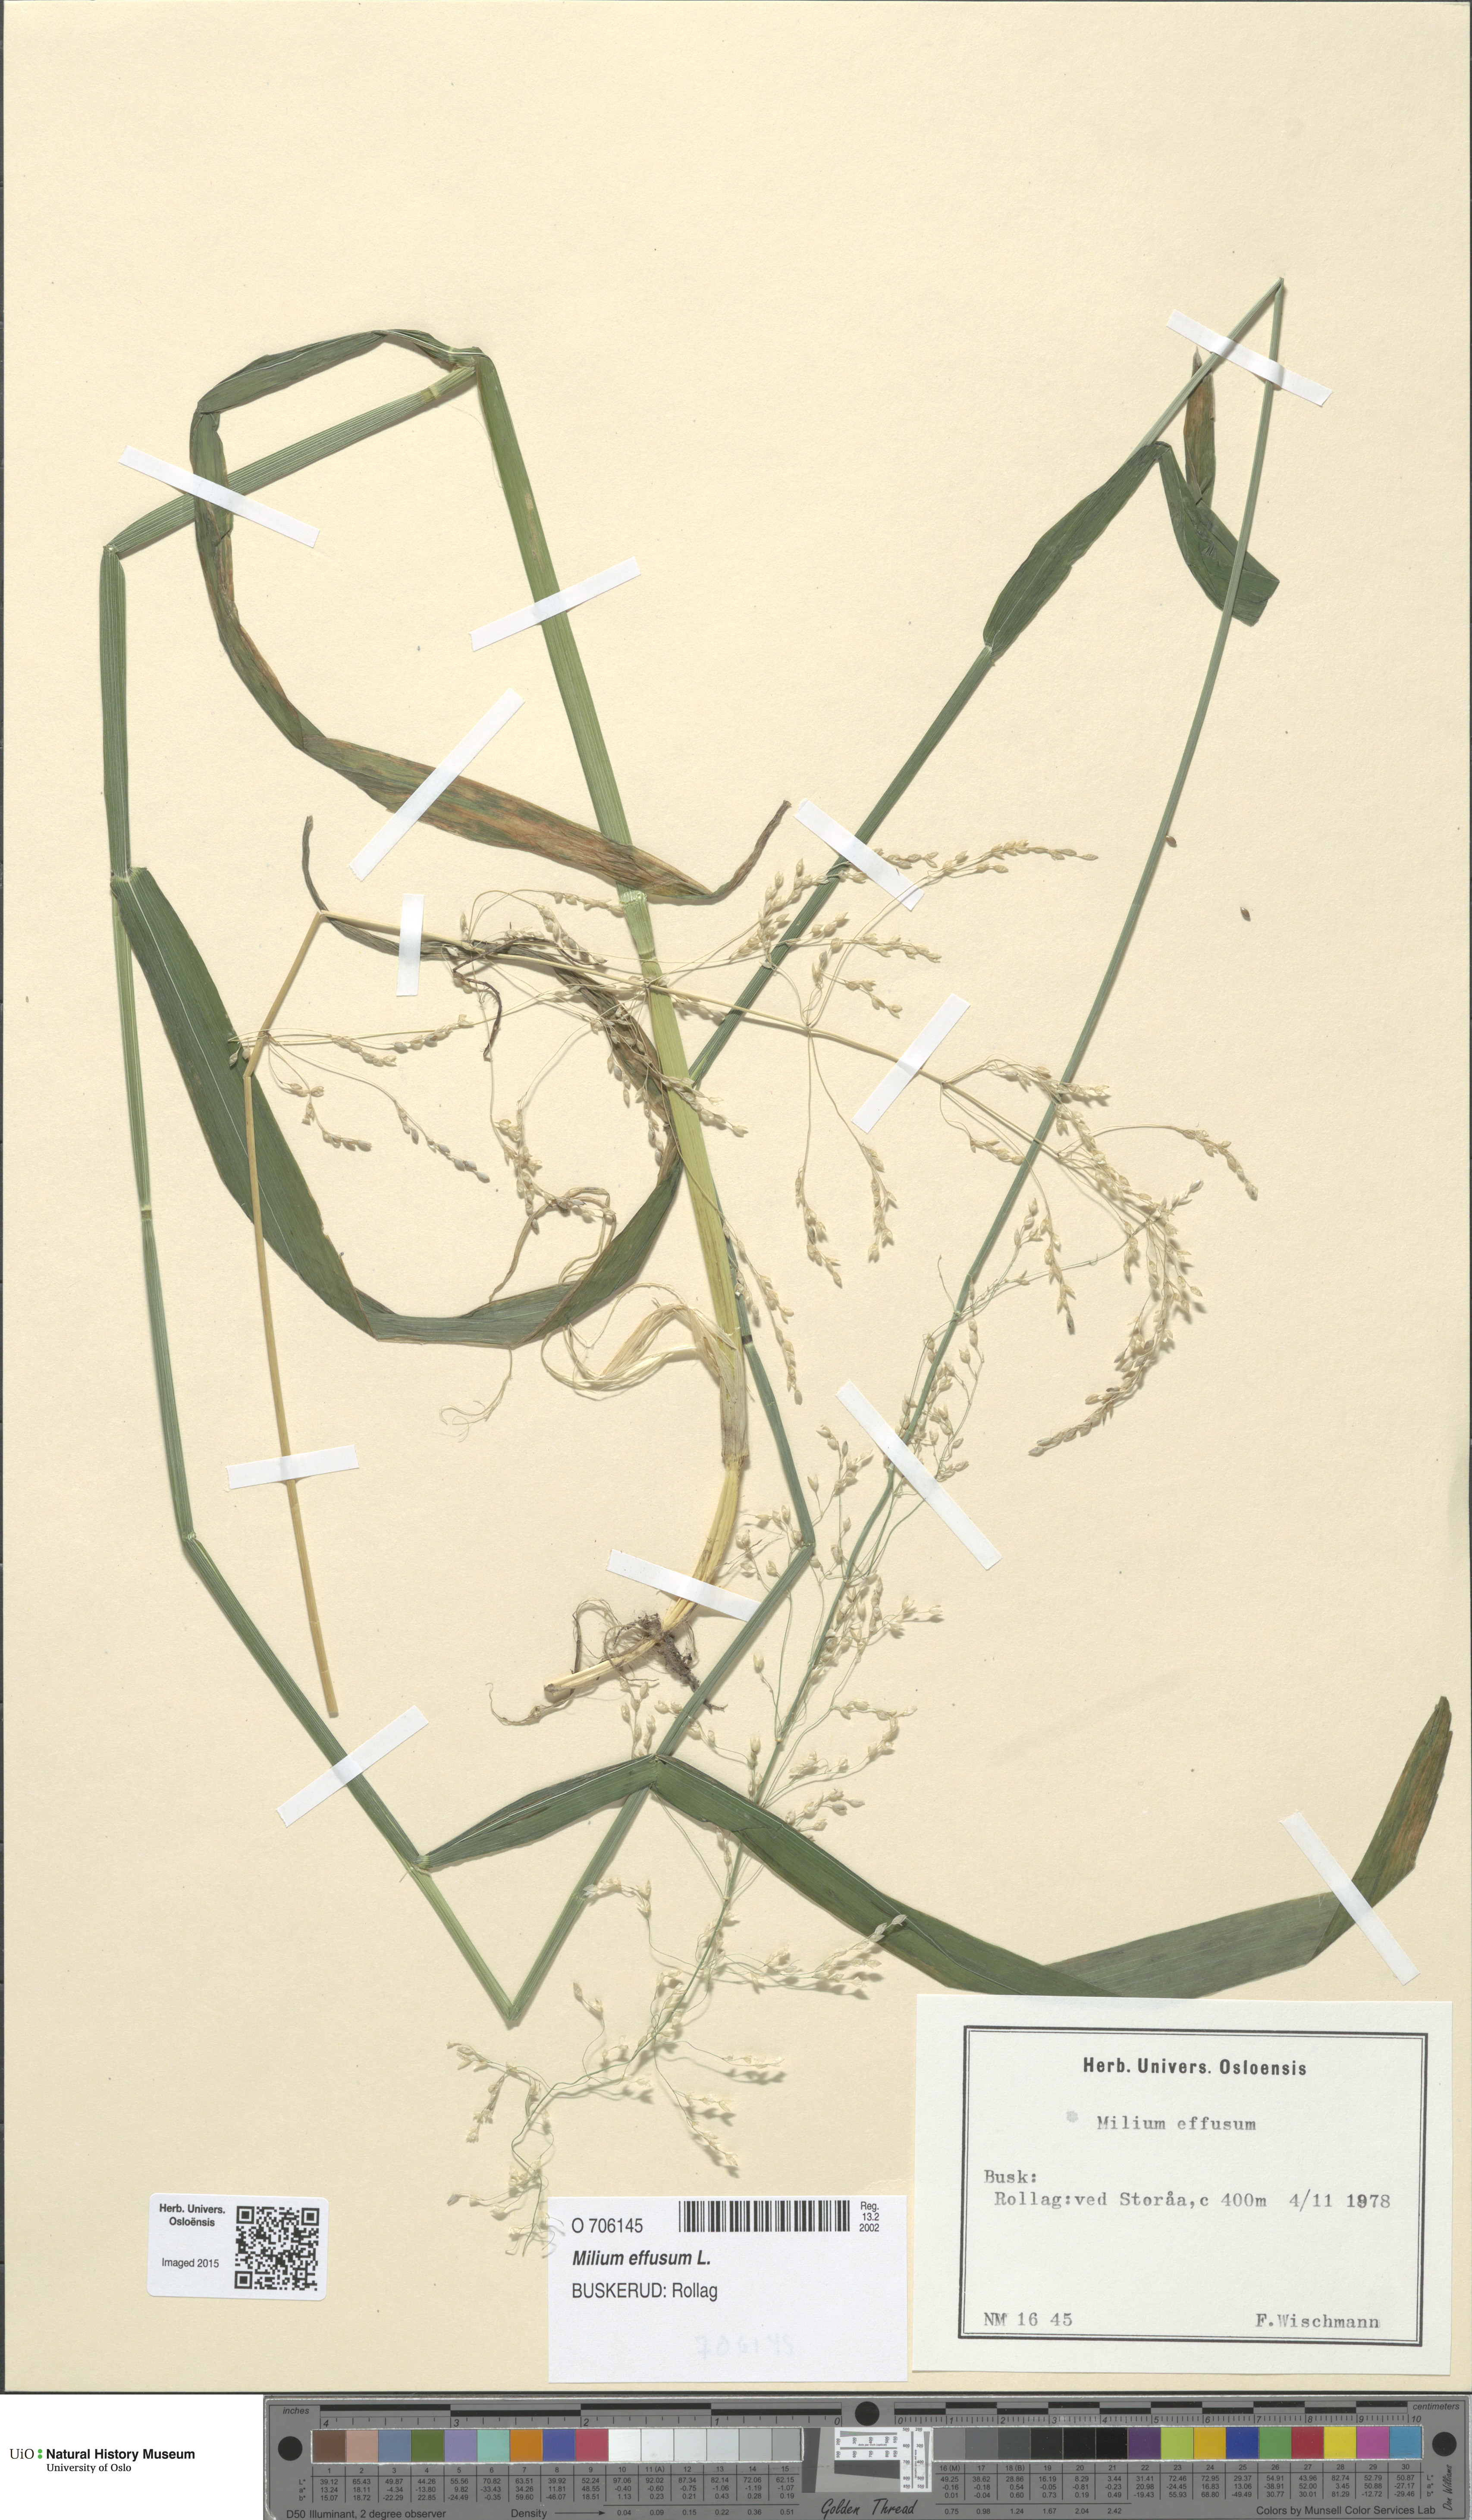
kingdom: Plantae
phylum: Tracheophyta
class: Liliopsida
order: Poales
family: Poaceae
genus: Milium
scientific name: Milium effusum
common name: Wood millet
